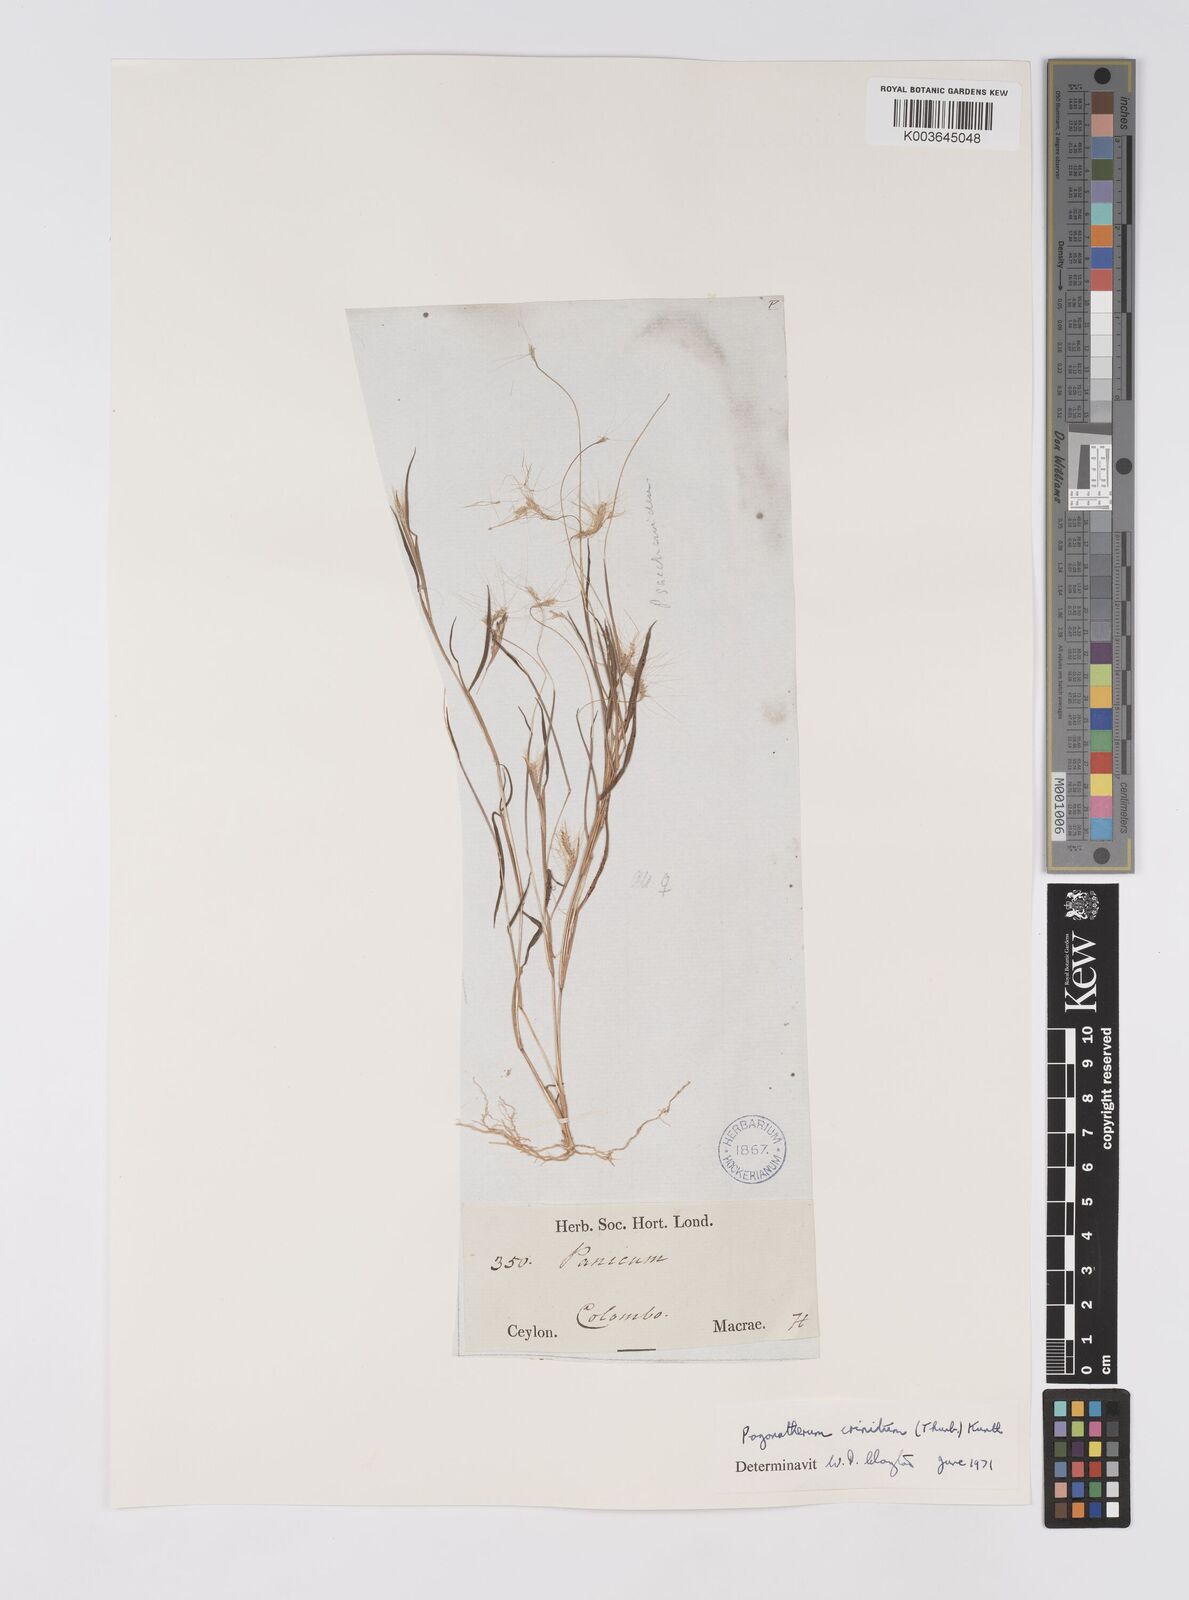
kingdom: Plantae
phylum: Tracheophyta
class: Liliopsida
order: Poales
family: Poaceae
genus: Pogonatherum
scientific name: Pogonatherum crinitum
